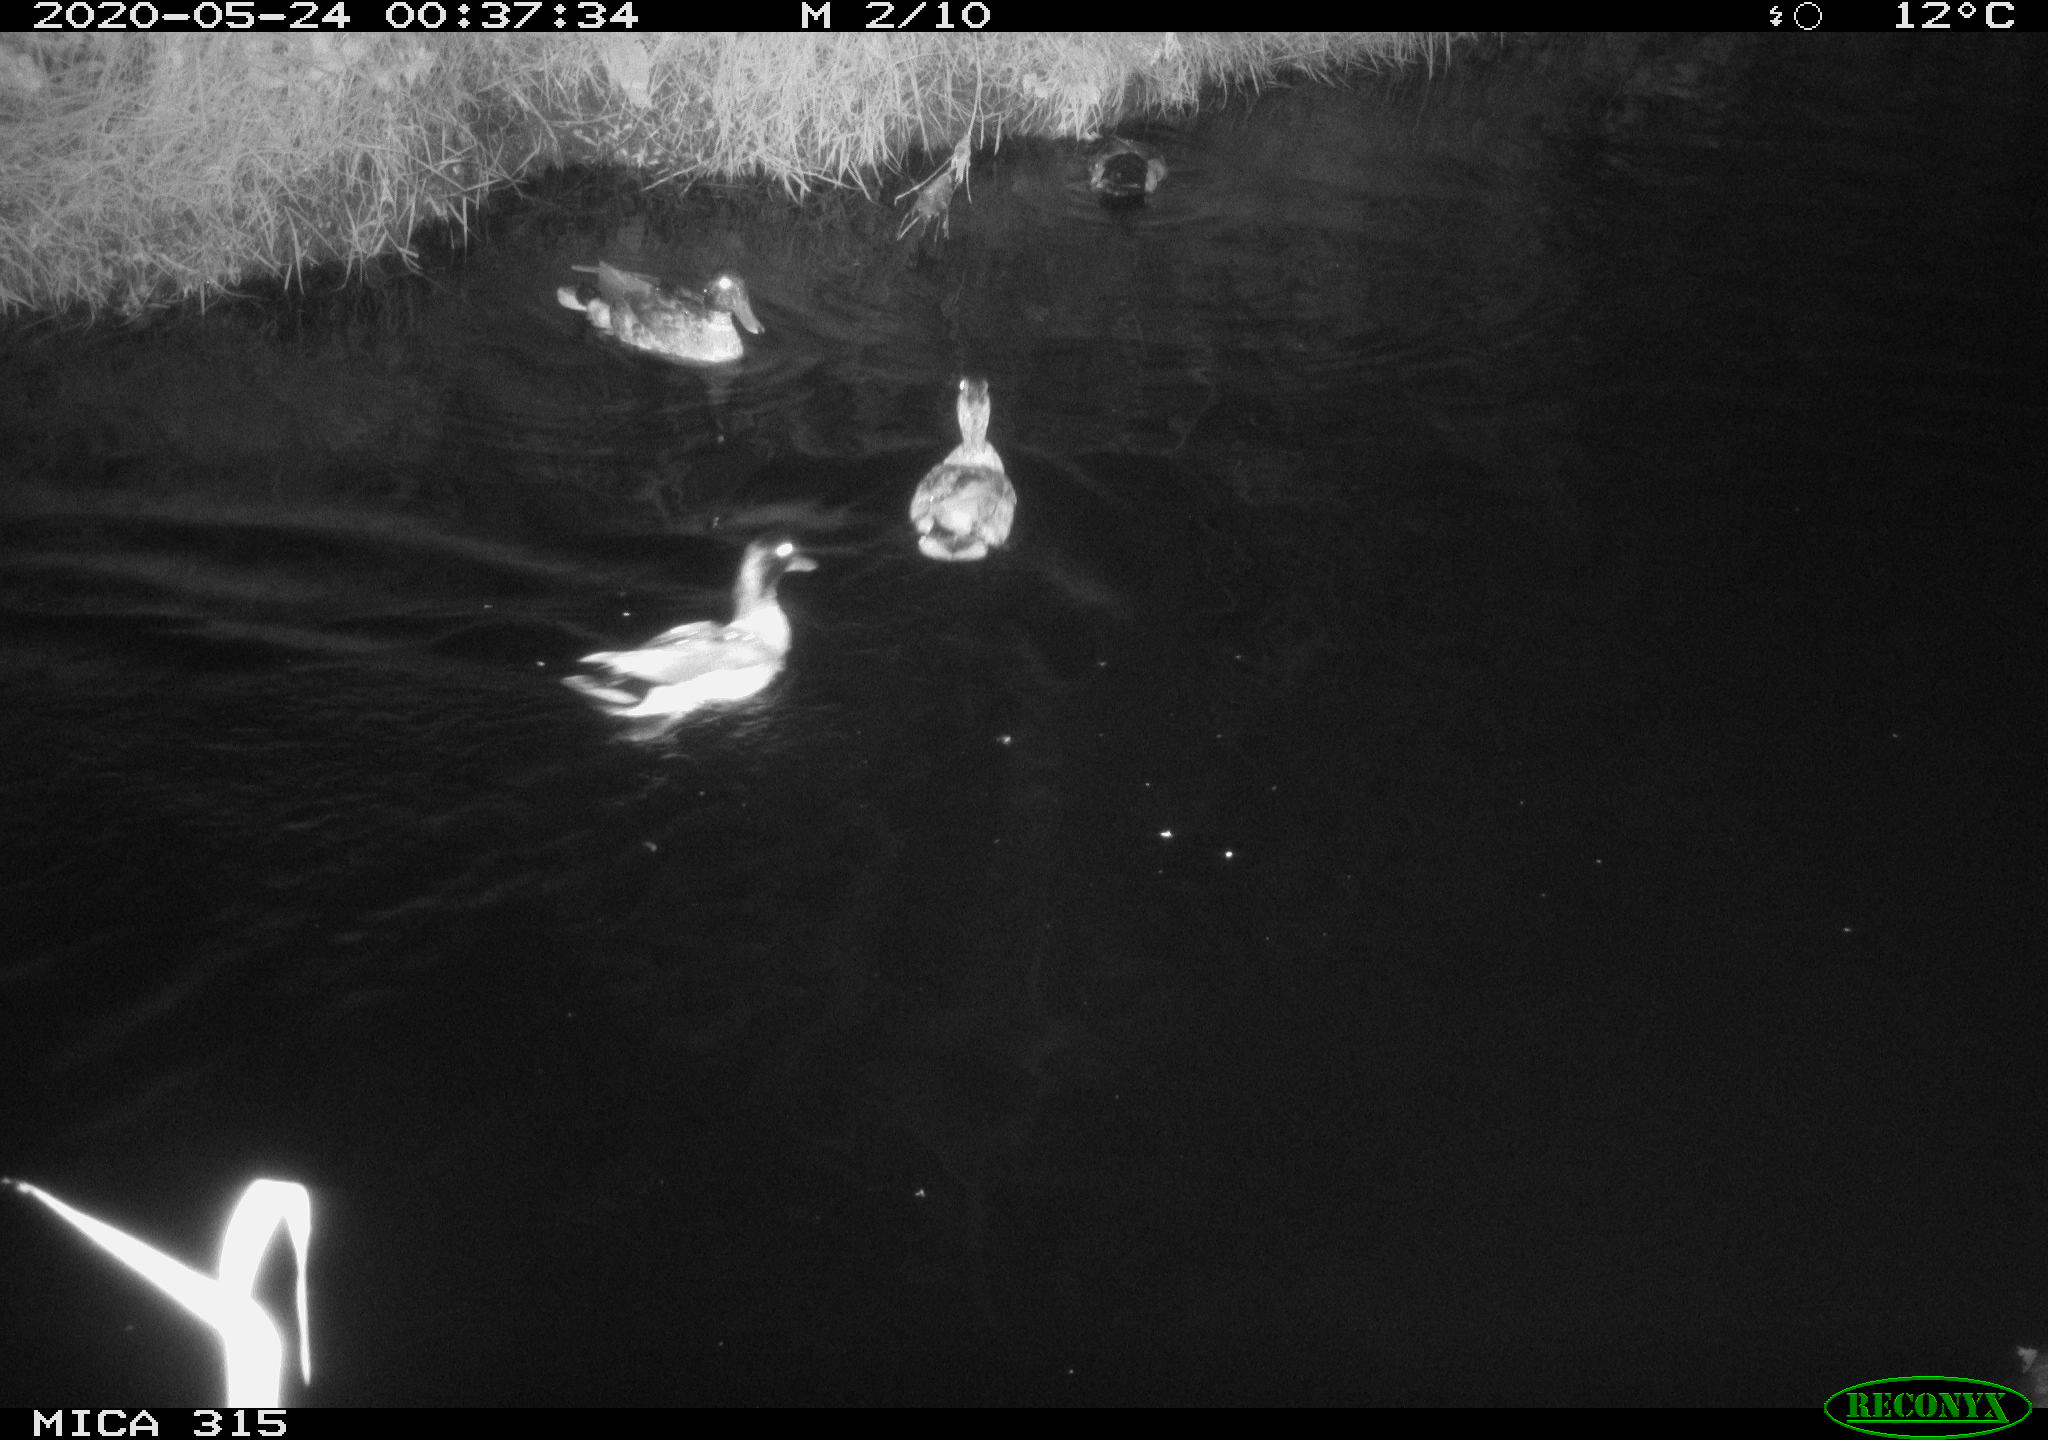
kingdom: Animalia
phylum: Chordata
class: Aves
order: Anseriformes
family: Anatidae
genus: Anas
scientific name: Anas platyrhynchos
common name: Mallard
